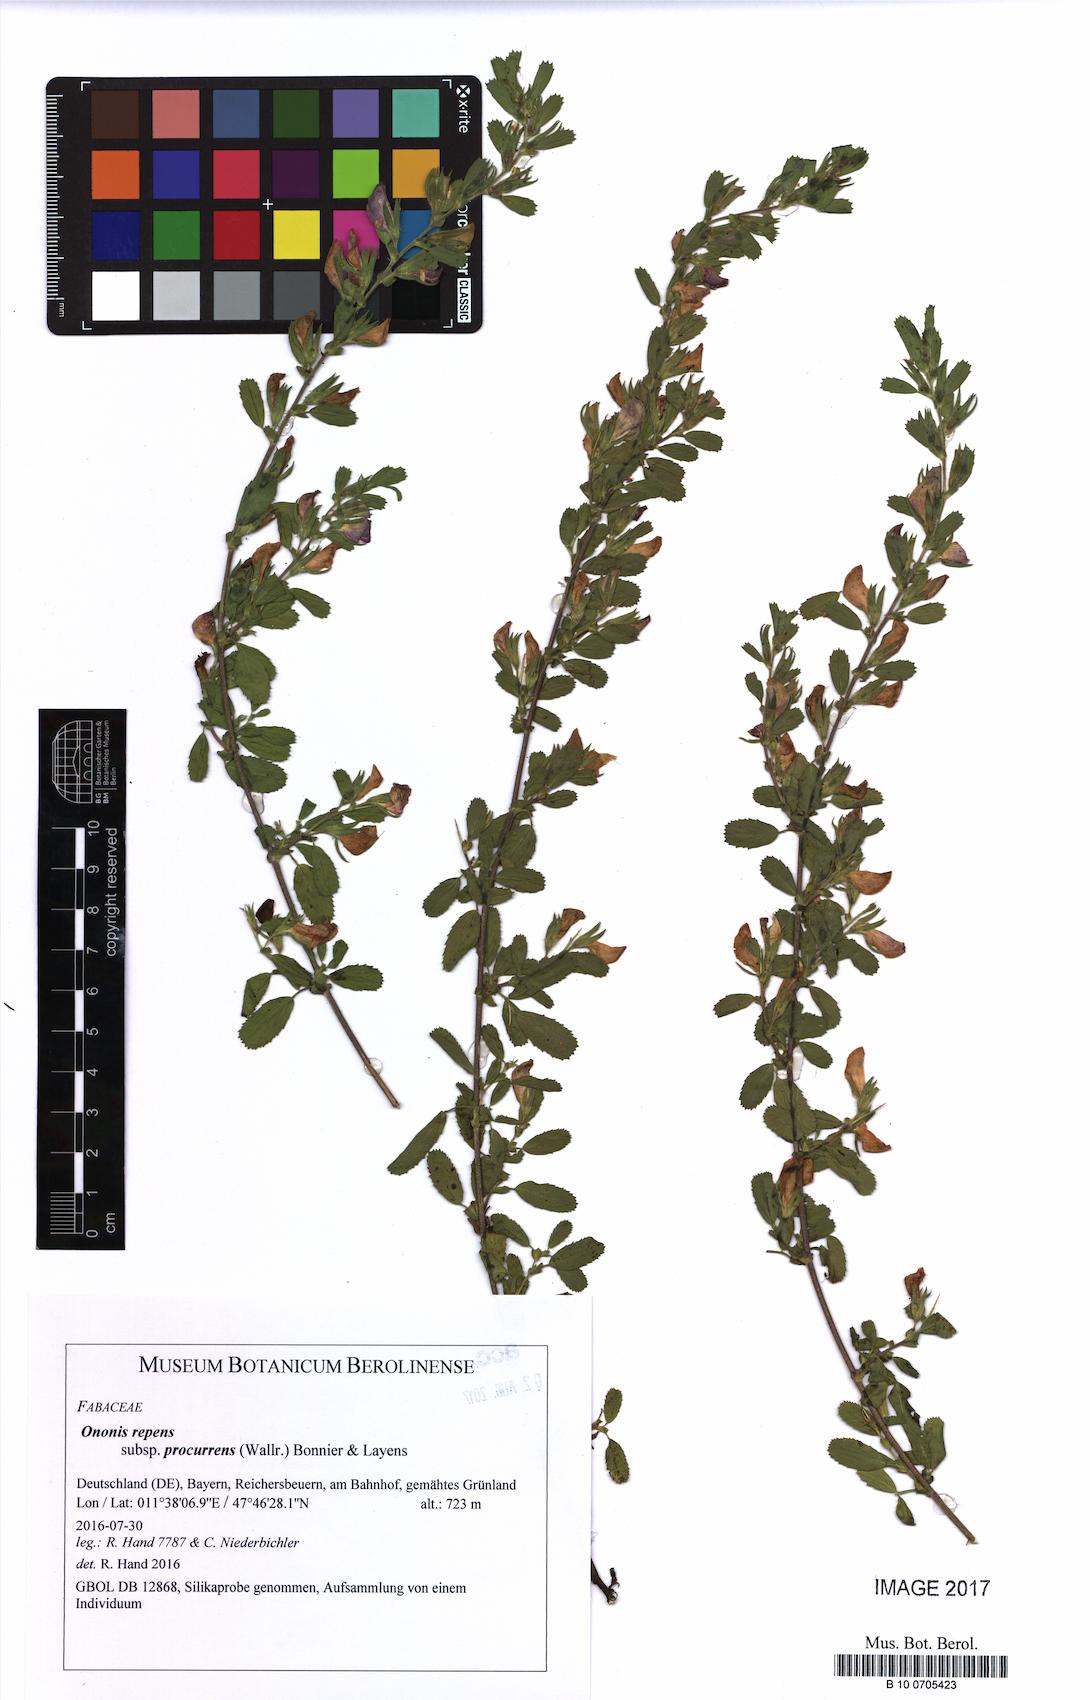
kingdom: Plantae
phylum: Tracheophyta
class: Magnoliopsida
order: Fabales
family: Fabaceae
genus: Ononis
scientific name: Ononis spinosa
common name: Spiny restharrow
